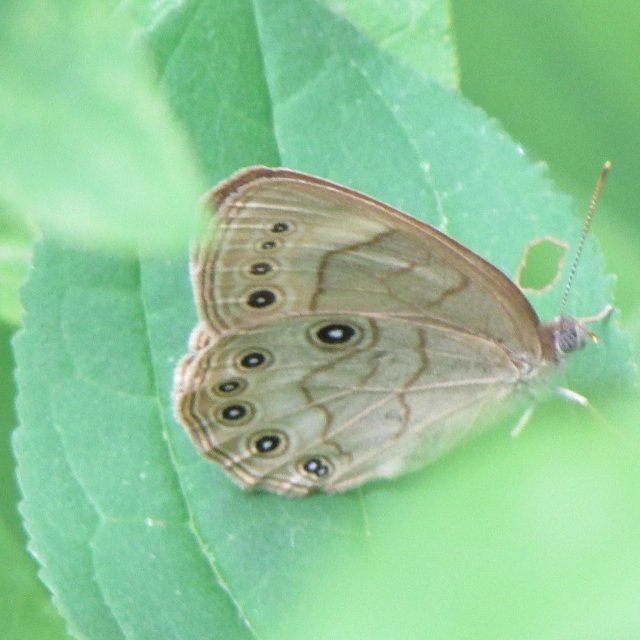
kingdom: Animalia
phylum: Arthropoda
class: Insecta
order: Lepidoptera
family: Nymphalidae
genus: Lethe
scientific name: Lethe eurydice
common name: Eyed Brown
